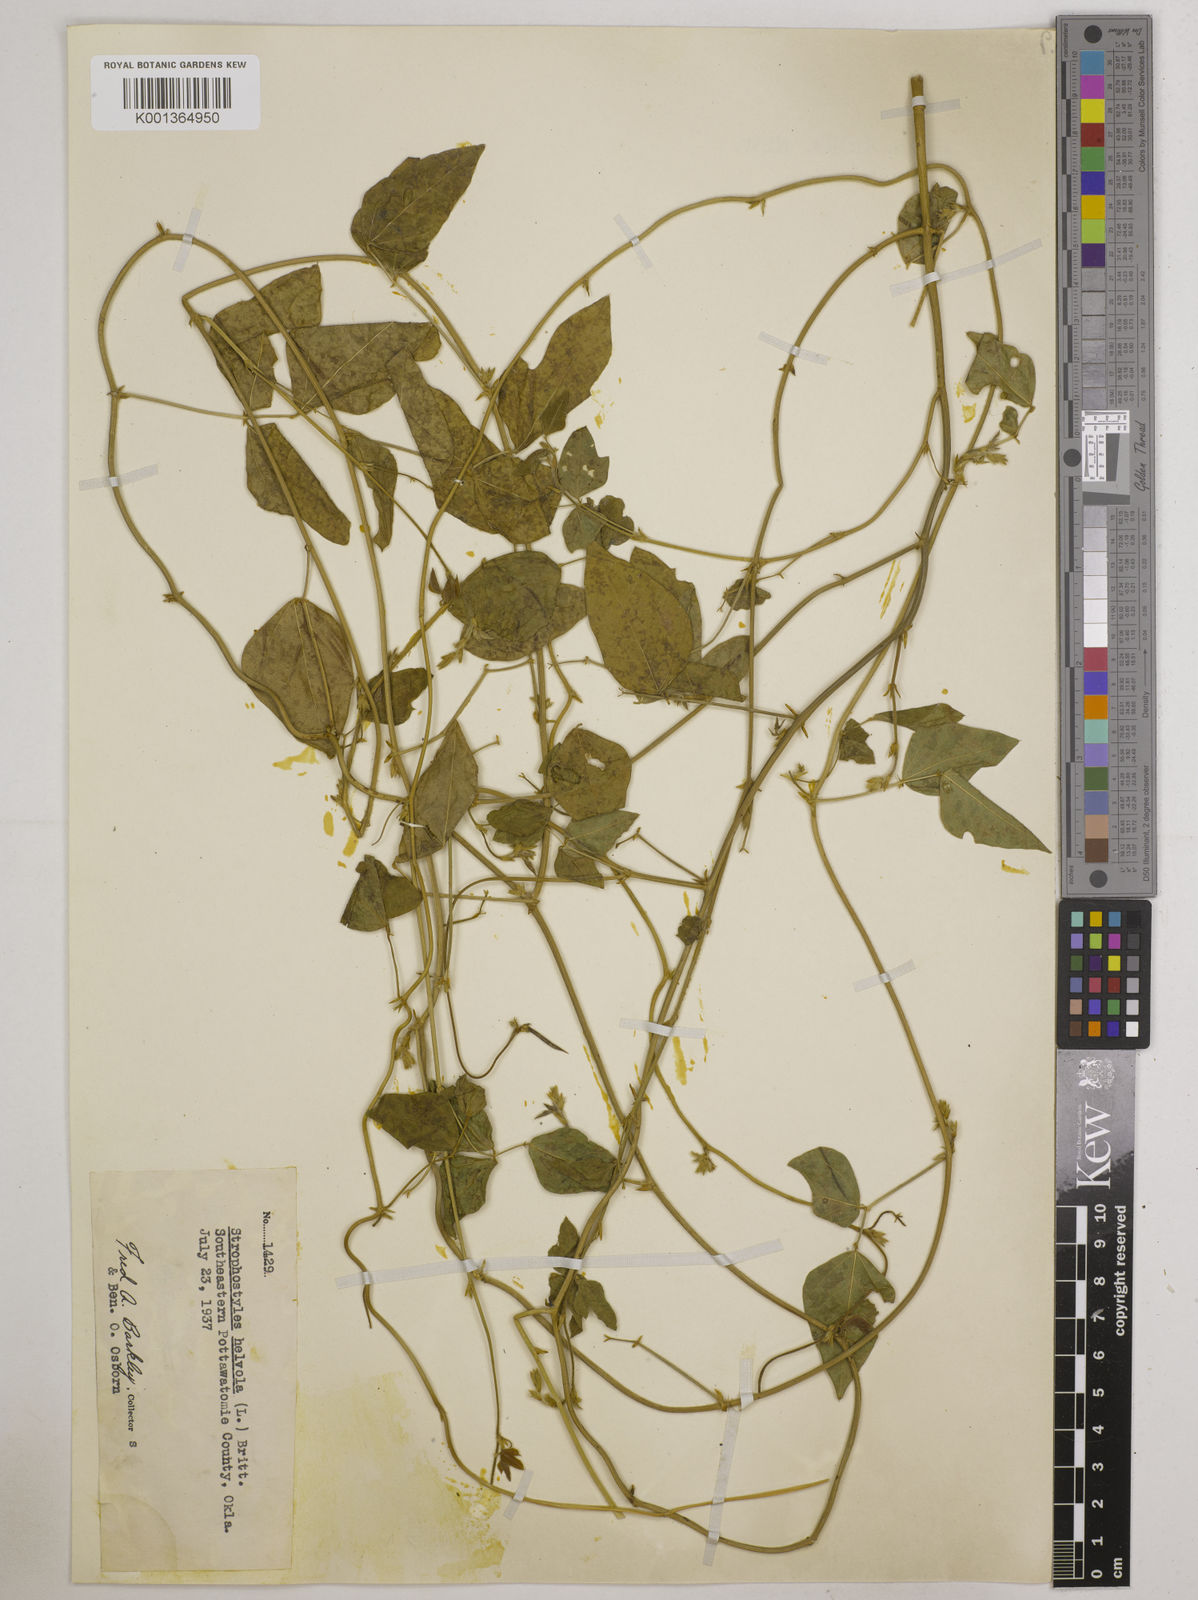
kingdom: Plantae
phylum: Tracheophyta
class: Magnoliopsida
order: Fabales
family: Fabaceae
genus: Strophostyles
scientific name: Strophostyles
